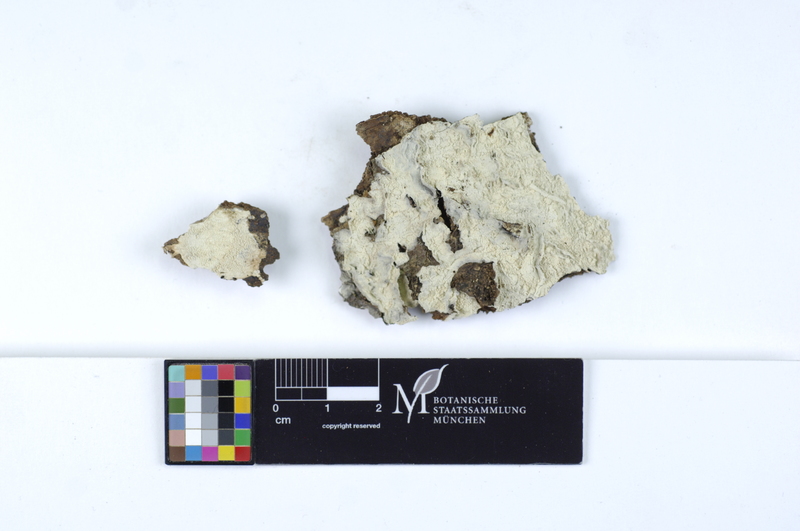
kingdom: Plantae
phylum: Tracheophyta
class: Magnoliopsida
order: Fagales
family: Fagaceae
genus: Fagus
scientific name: Fagus sylvatica
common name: Beech
